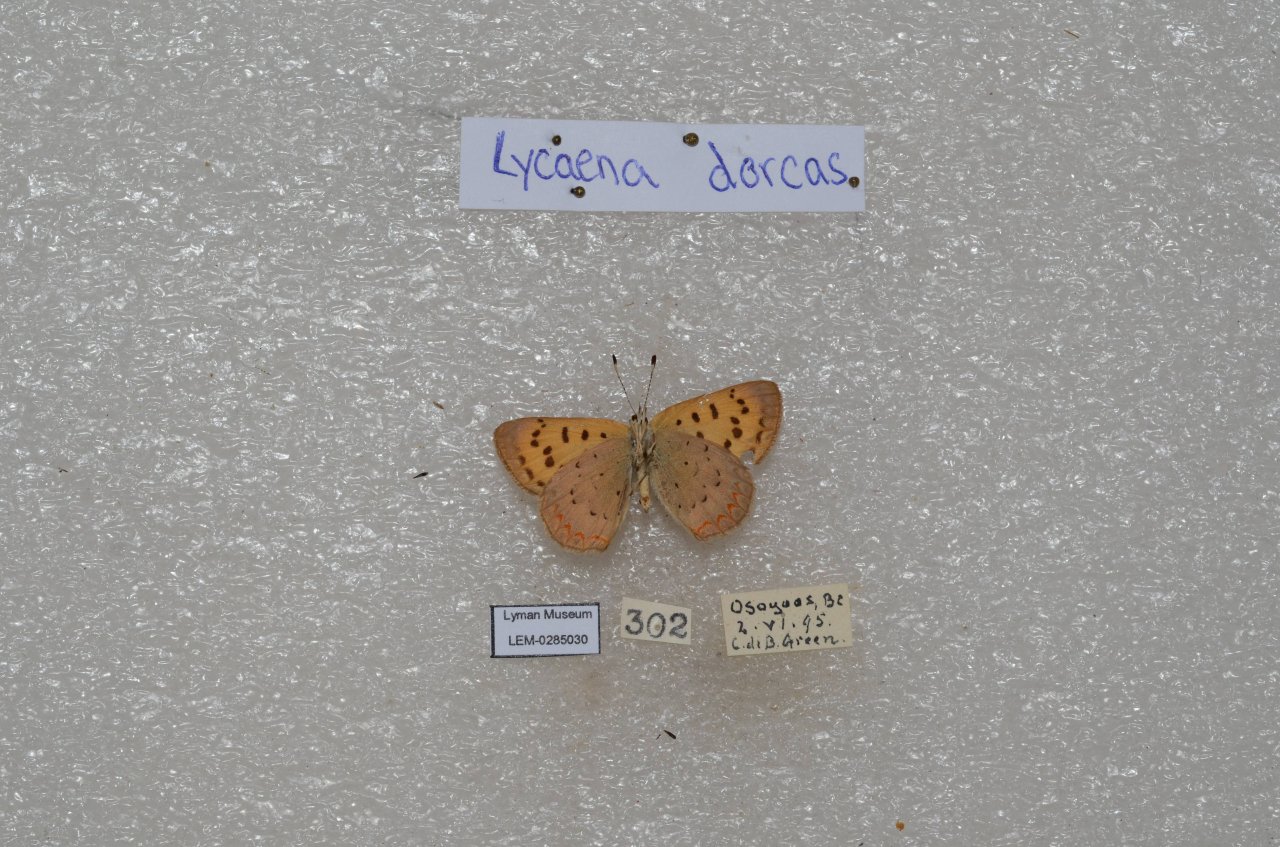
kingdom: Animalia
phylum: Arthropoda
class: Insecta
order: Lepidoptera
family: Lycaenidae
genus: Epidemia
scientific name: Epidemia dorcas
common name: Dorcas Copper
